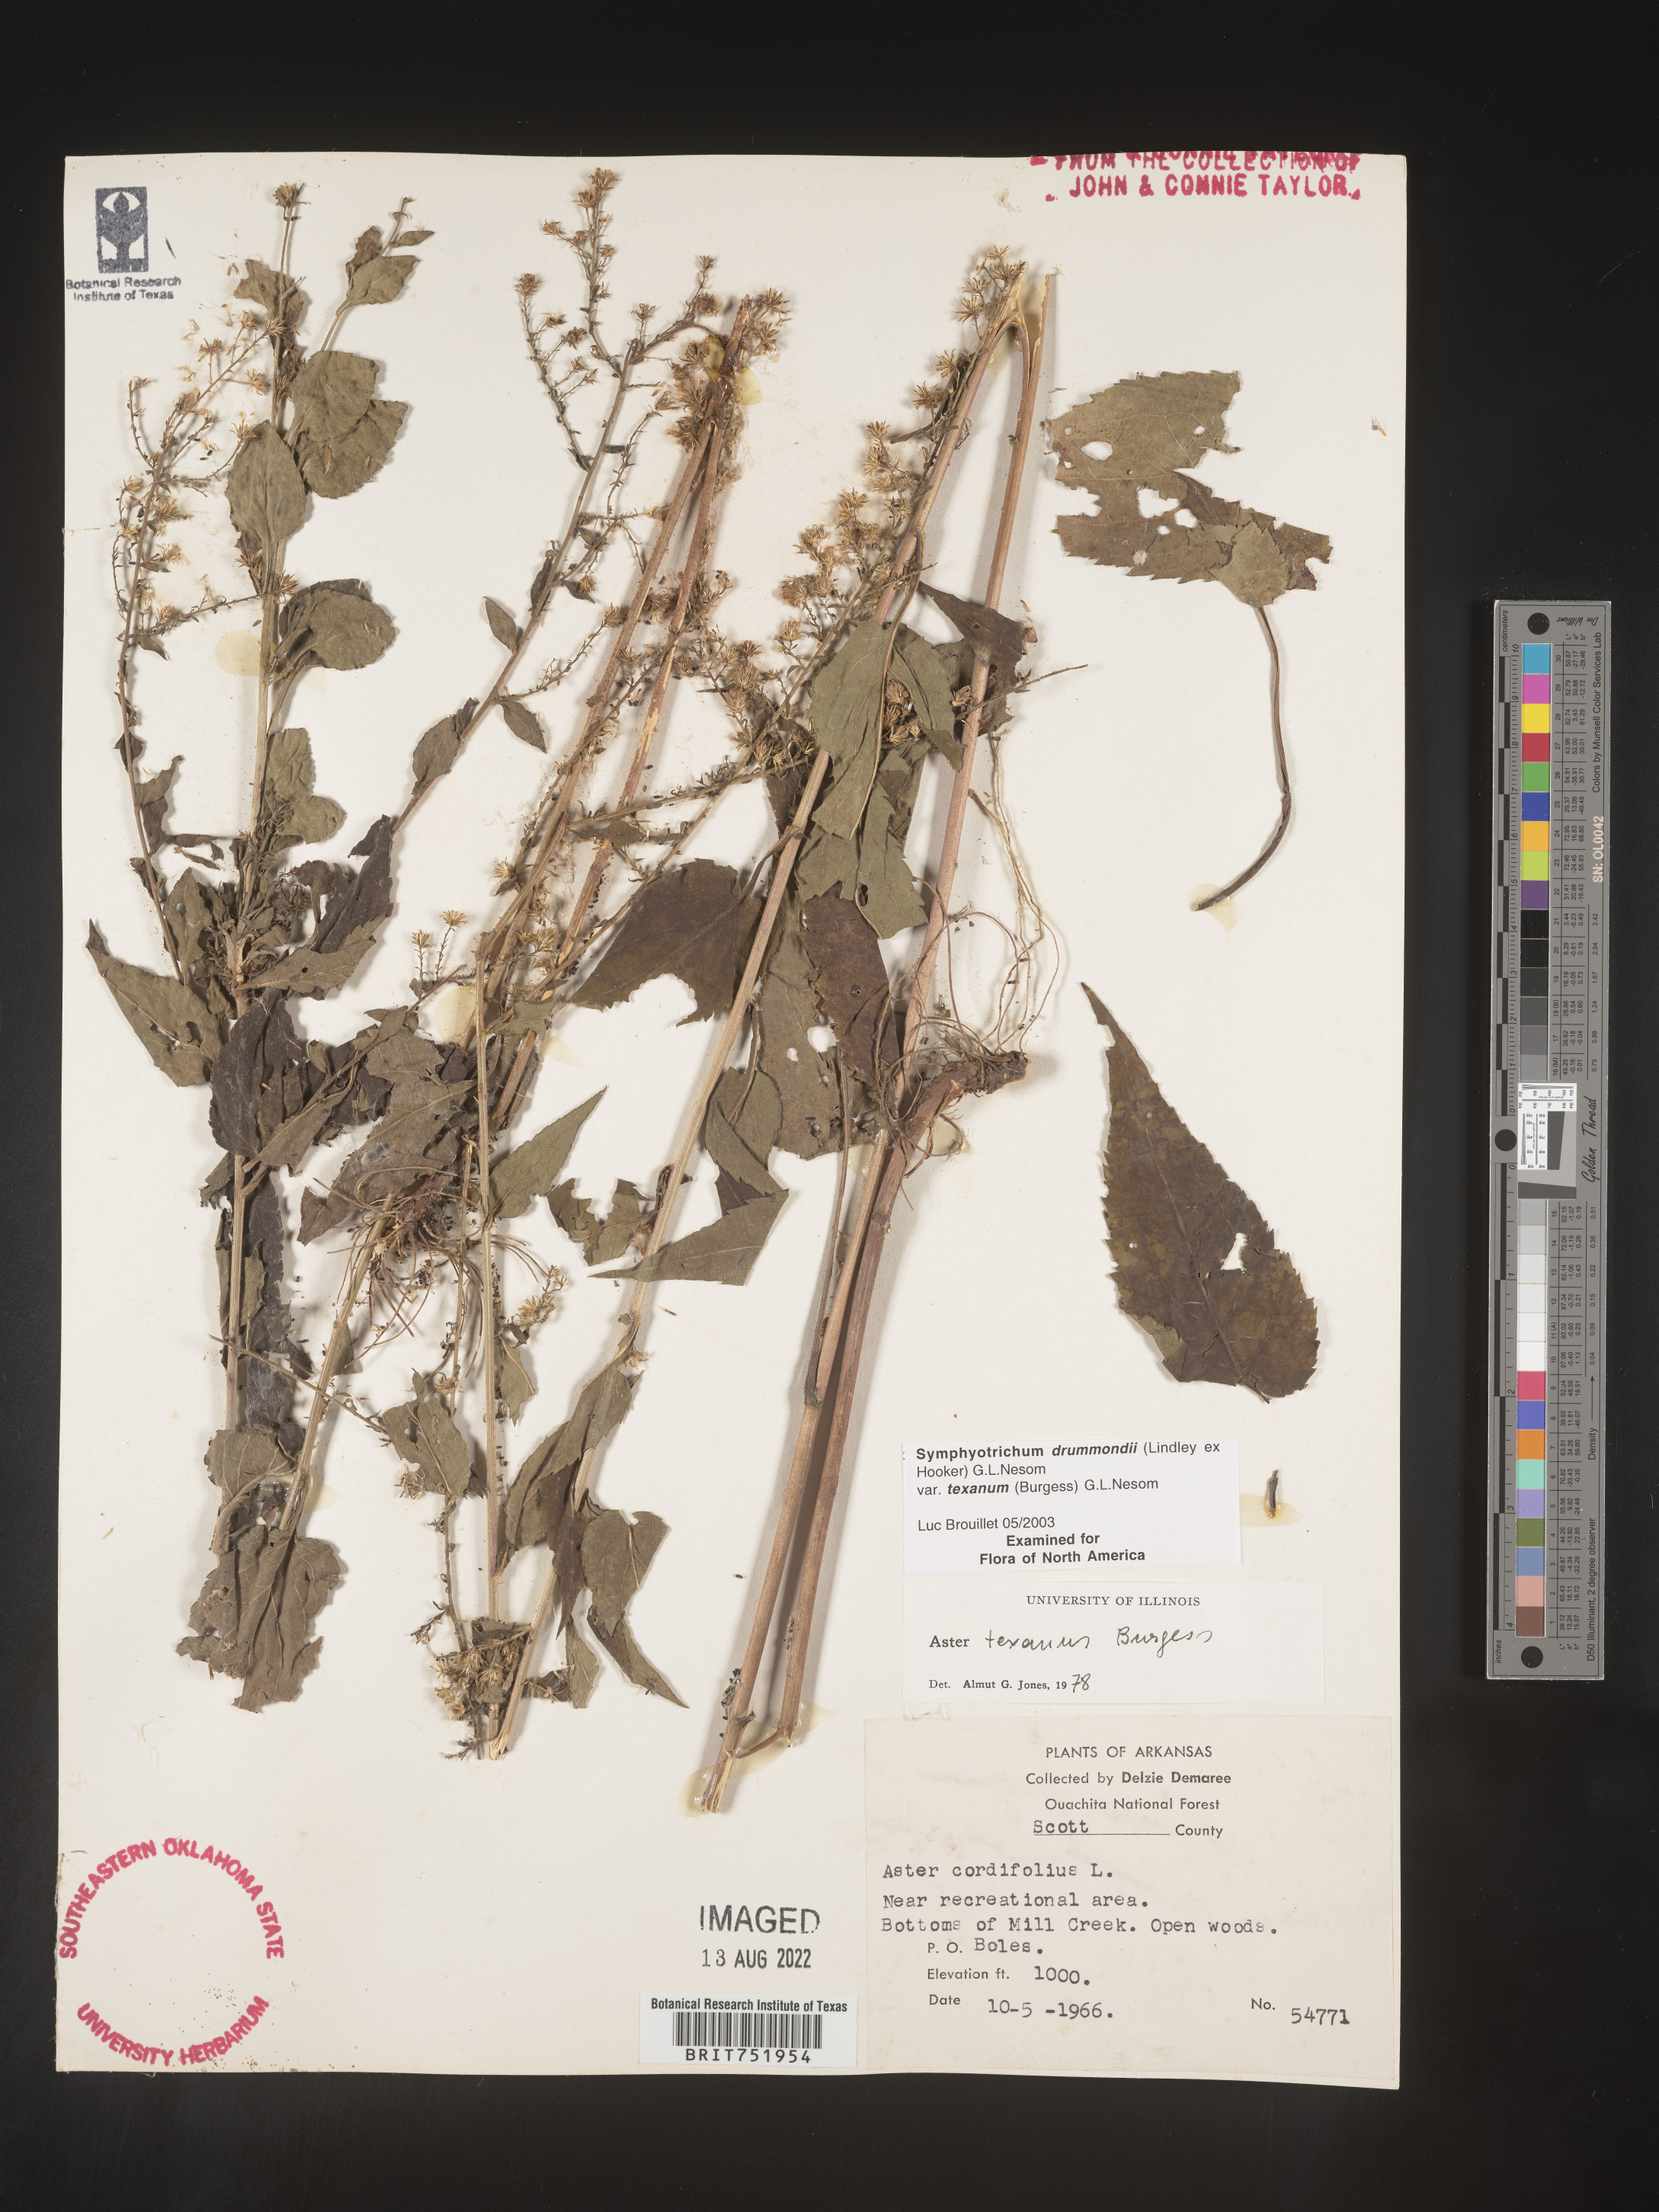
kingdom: Plantae
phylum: Tracheophyta
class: Magnoliopsida
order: Asterales
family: Asteraceae
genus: Symphyotrichum
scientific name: Symphyotrichum drummondii
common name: Drummond's aster
